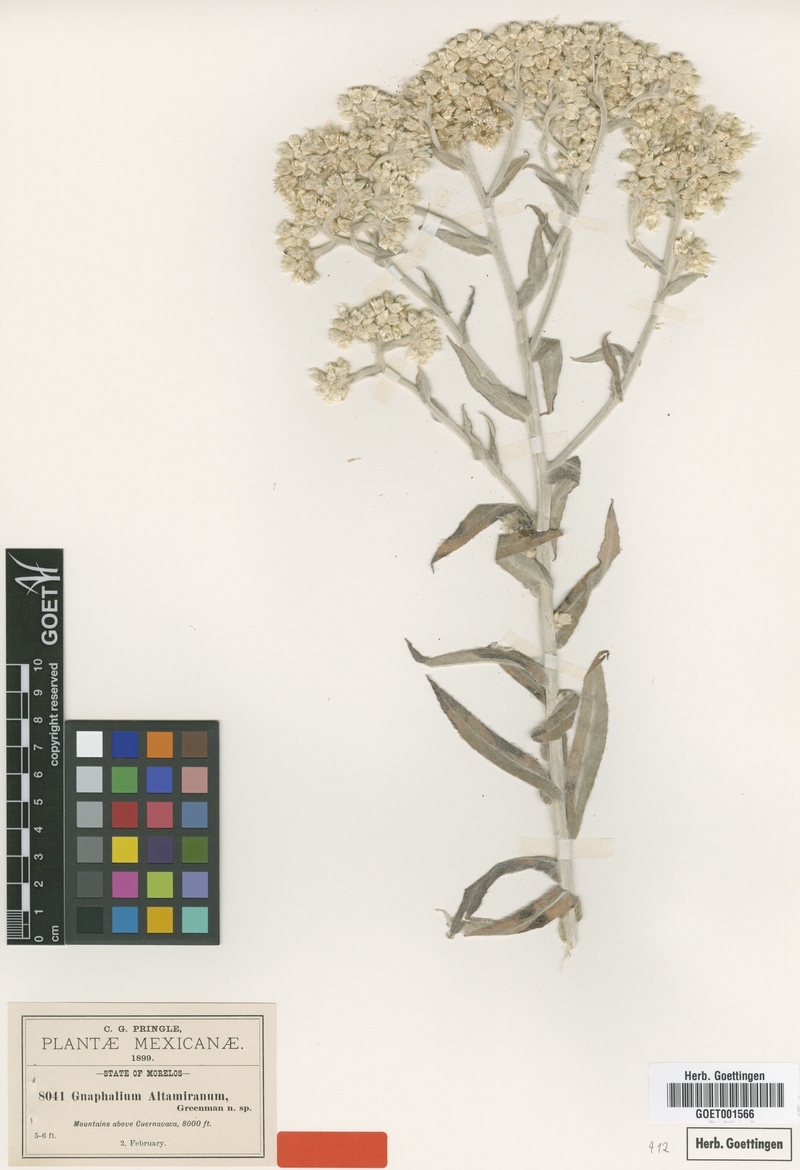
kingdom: Plantae
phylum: Tracheophyta
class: Magnoliopsida
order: Asterales
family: Asteraceae
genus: Pseudognaphalium
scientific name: Pseudognaphalium altamiranum
